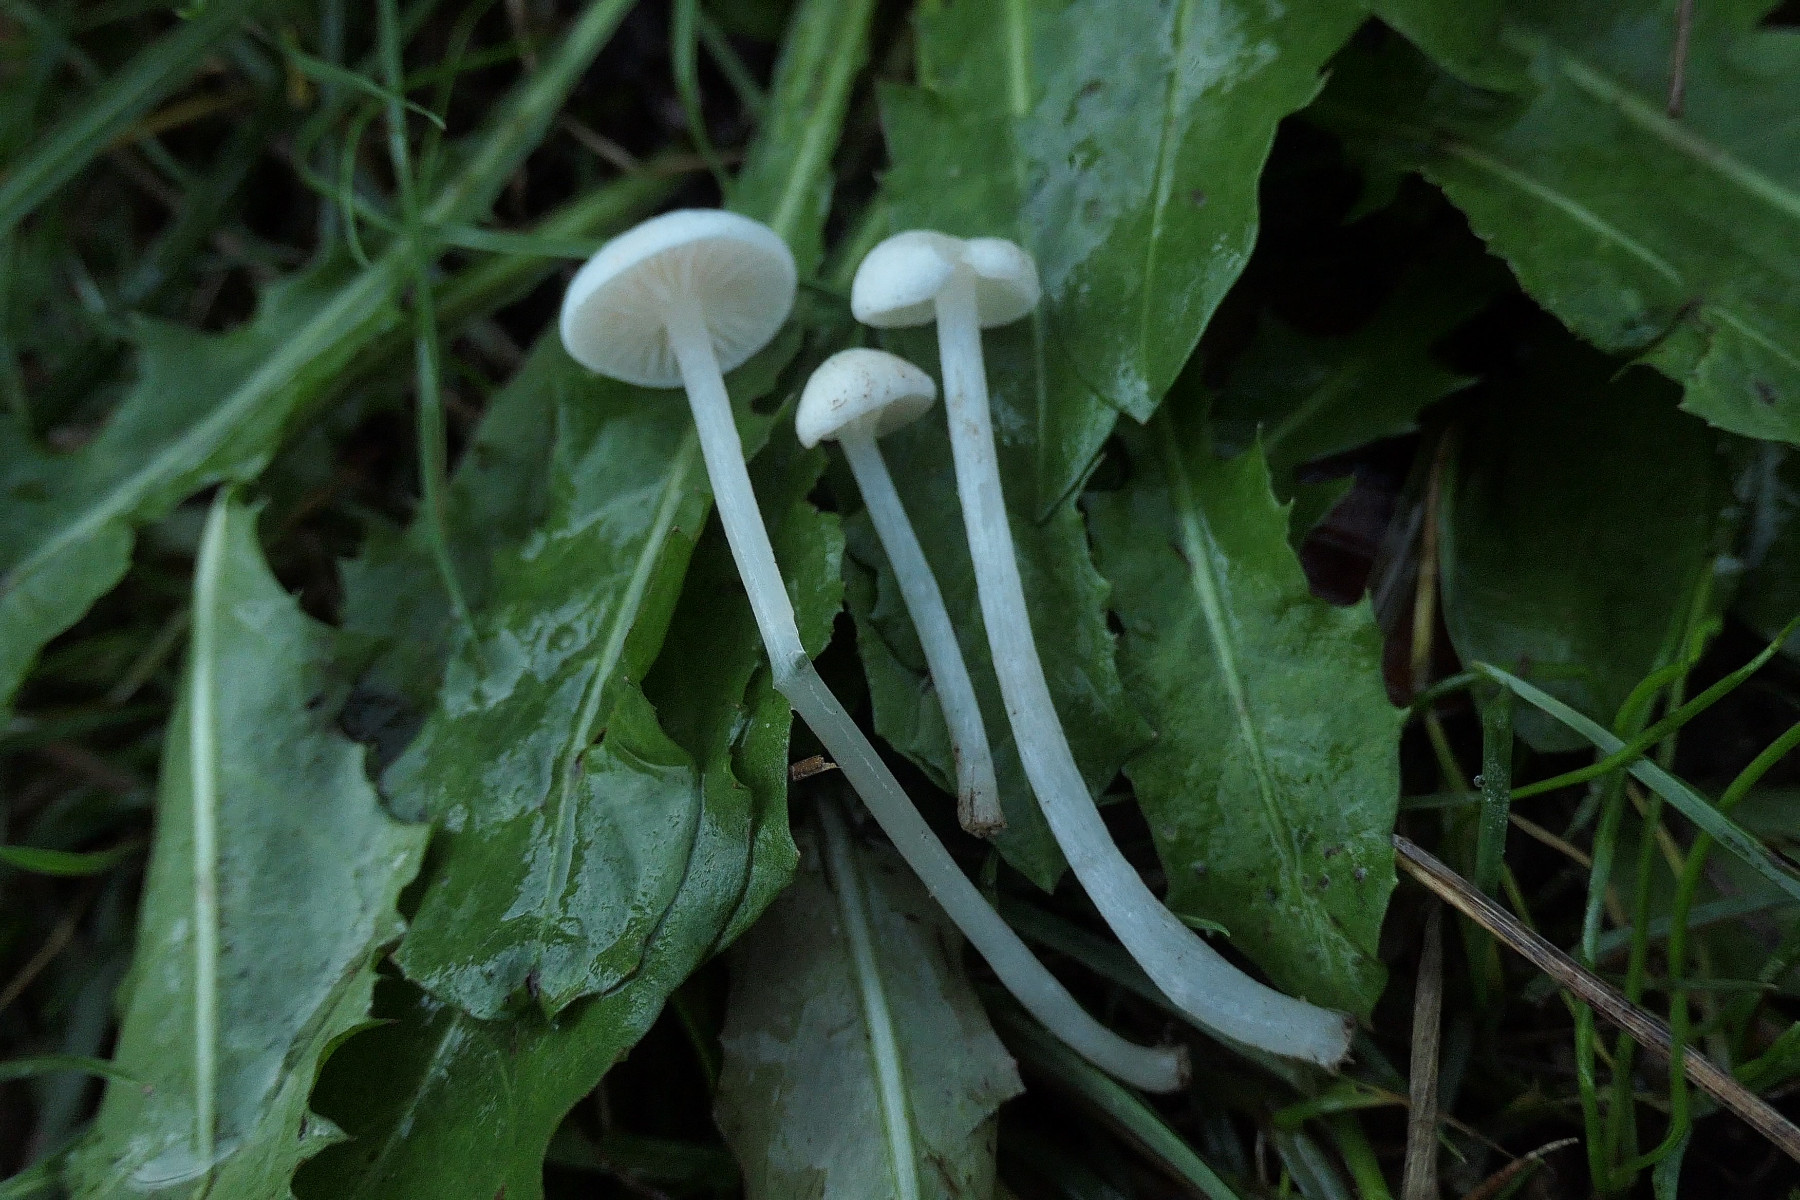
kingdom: Fungi
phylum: Basidiomycota
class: Agaricomycetes
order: Agaricales
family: Entolomataceae
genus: Entoloma
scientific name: Entoloma sericellum
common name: silkehvid rødblad
